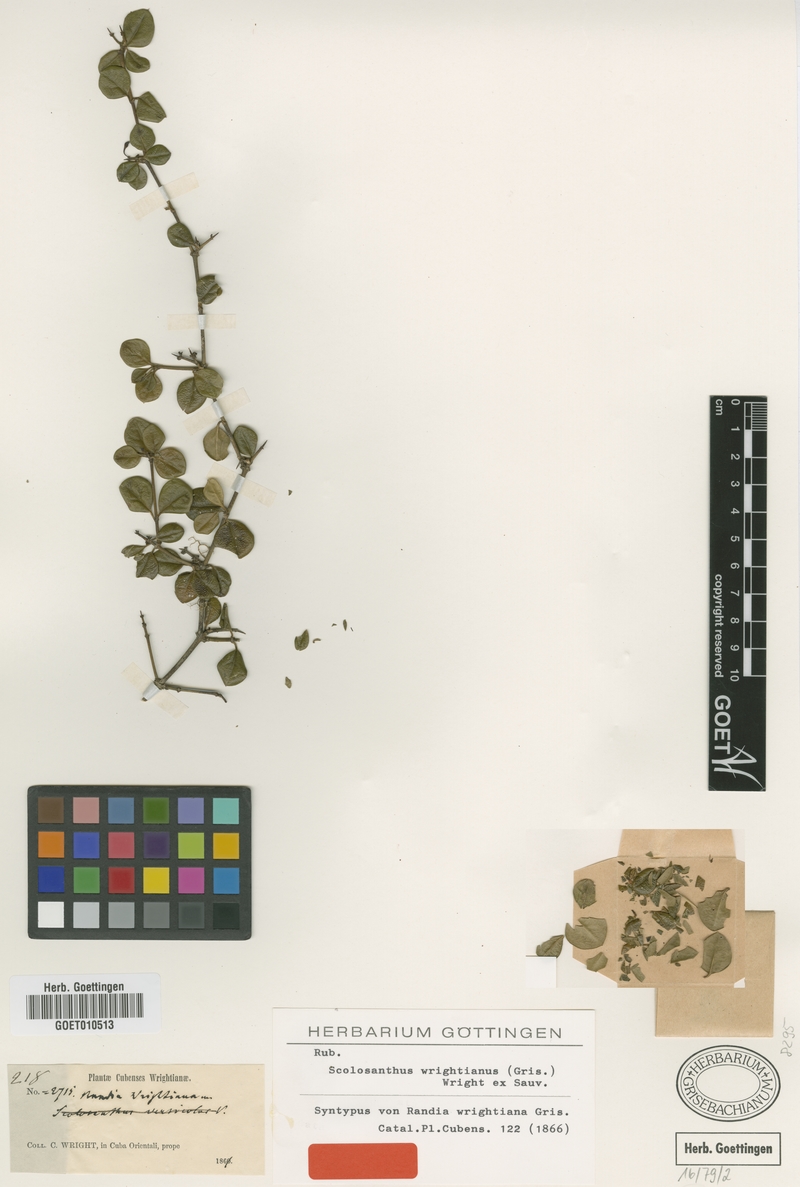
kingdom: Plantae
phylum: Tracheophyta
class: Magnoliopsida
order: Gentianales
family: Rubiaceae
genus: Scolosanthus
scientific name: Scolosanthus wrightianus
